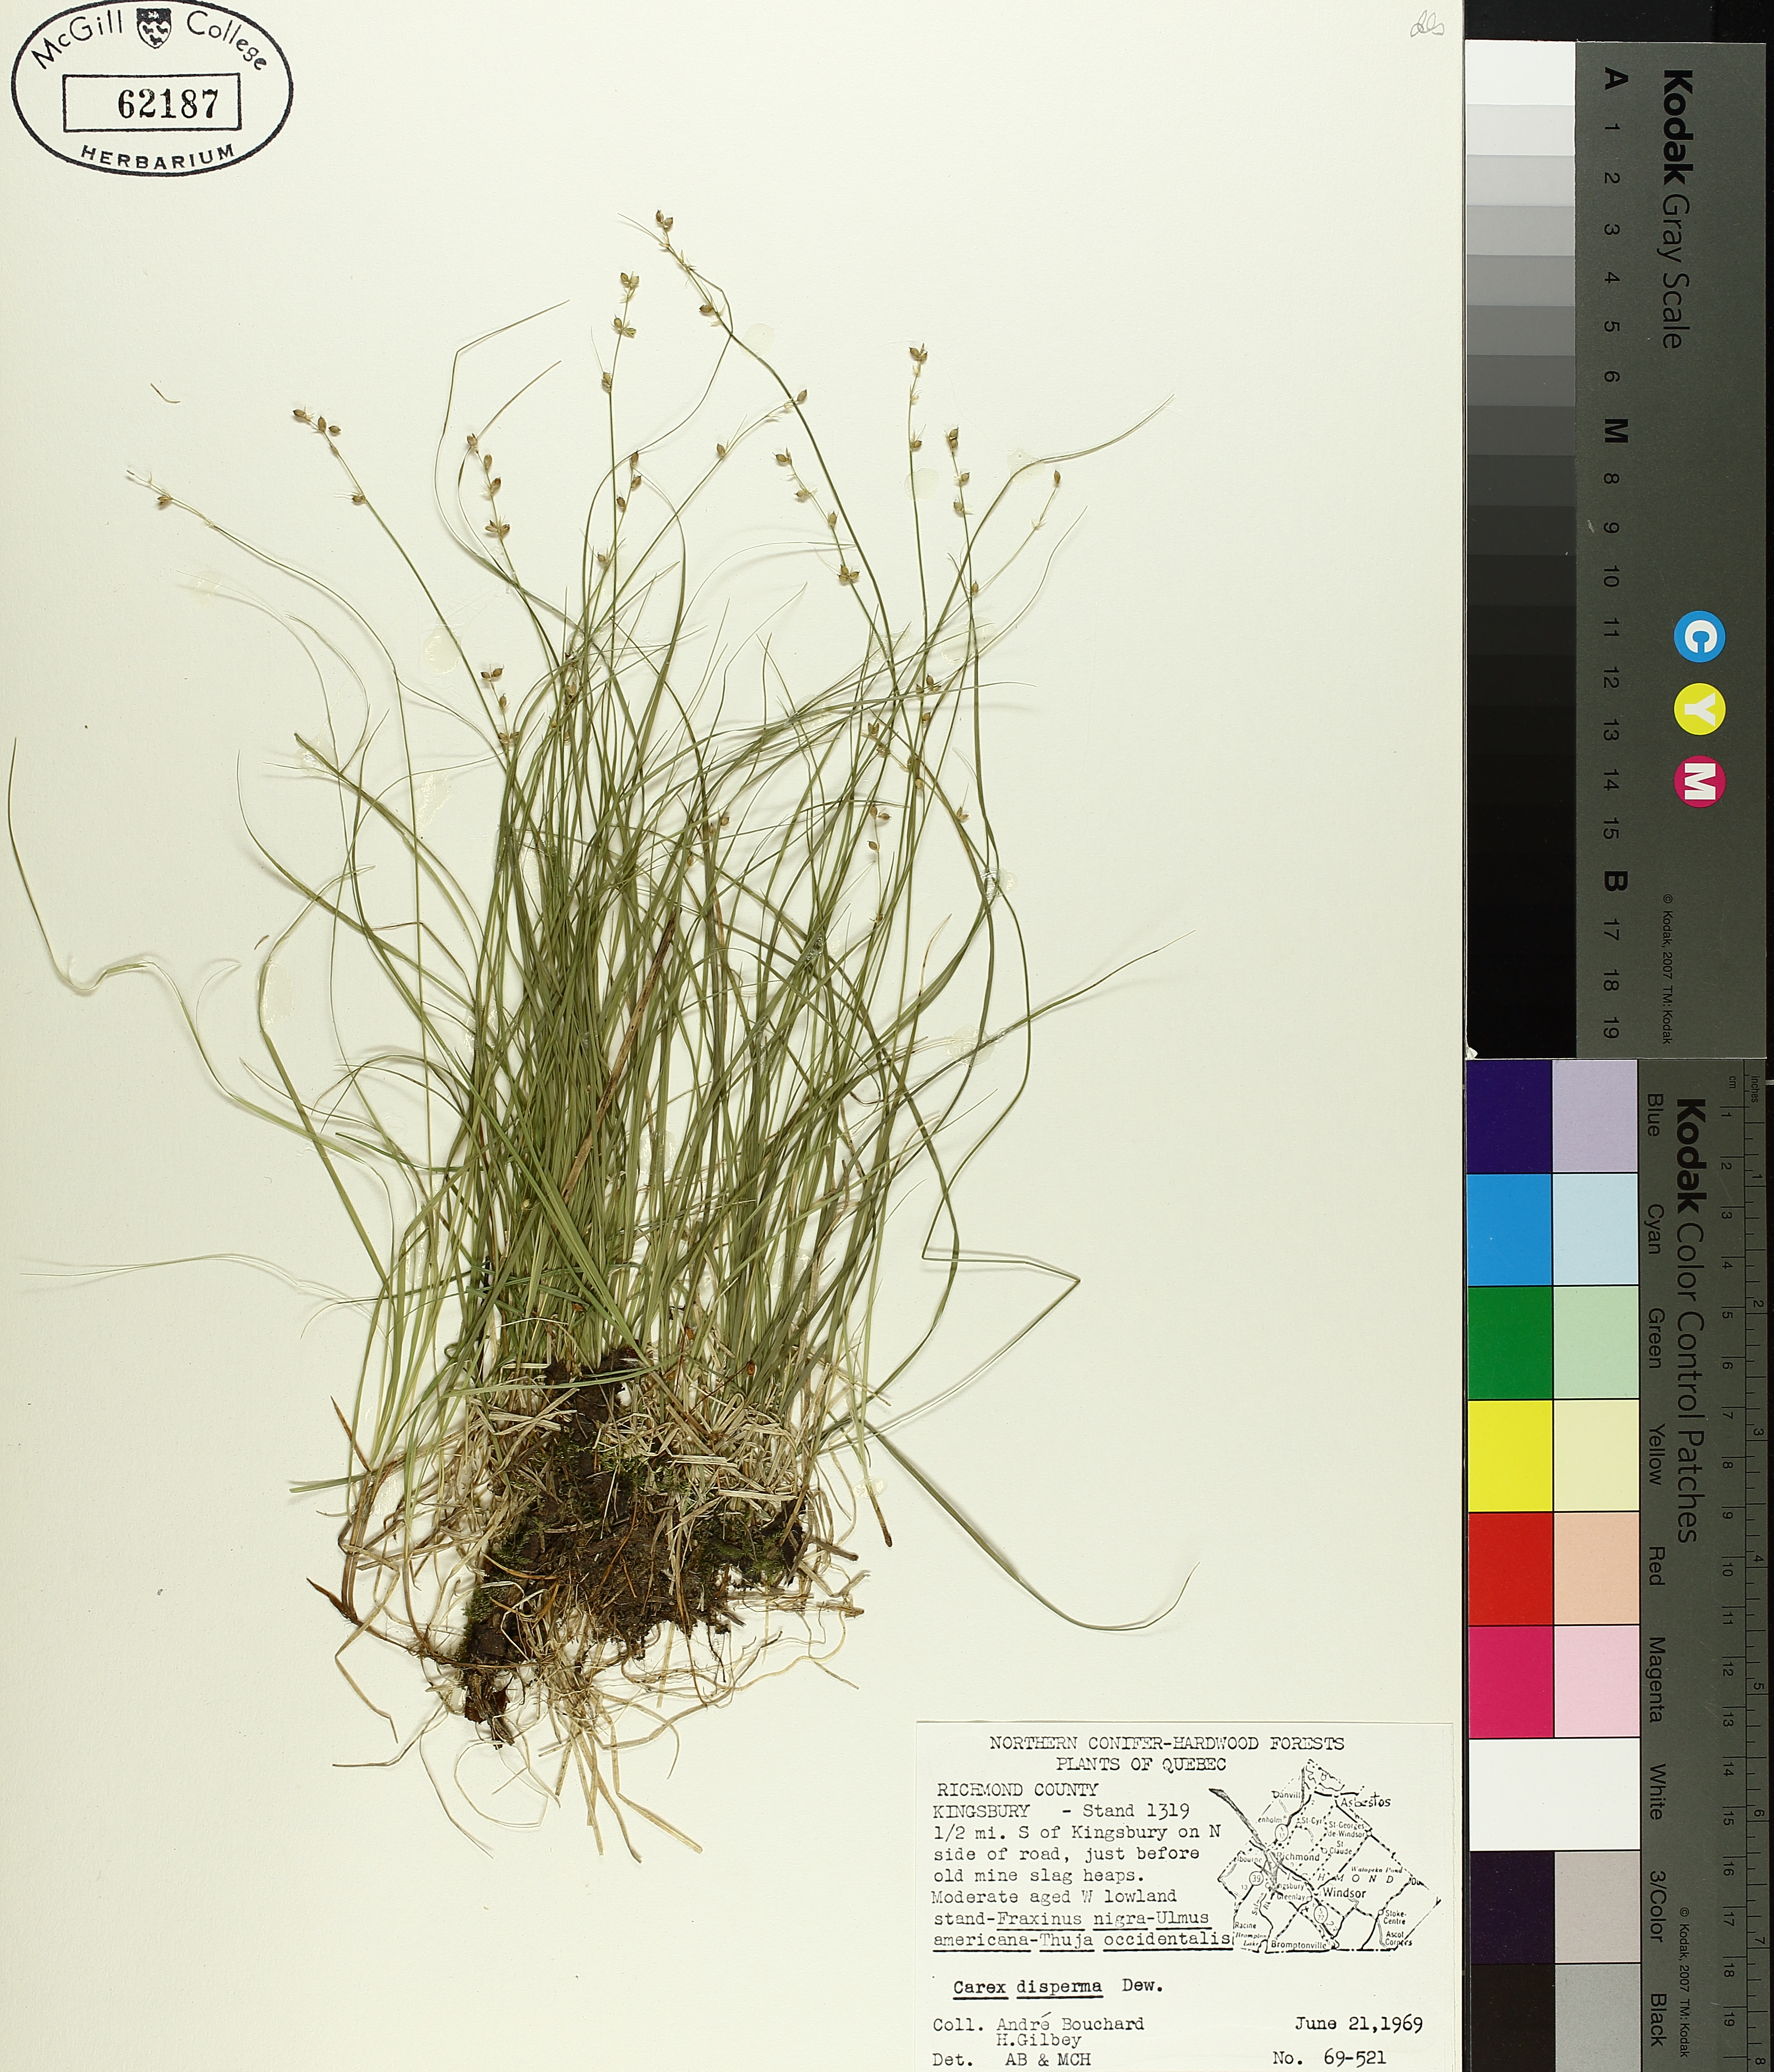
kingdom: Plantae
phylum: Tracheophyta
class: Liliopsida
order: Poales
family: Cyperaceae
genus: Carex
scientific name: Carex disperma
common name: Short-leaved sedge
